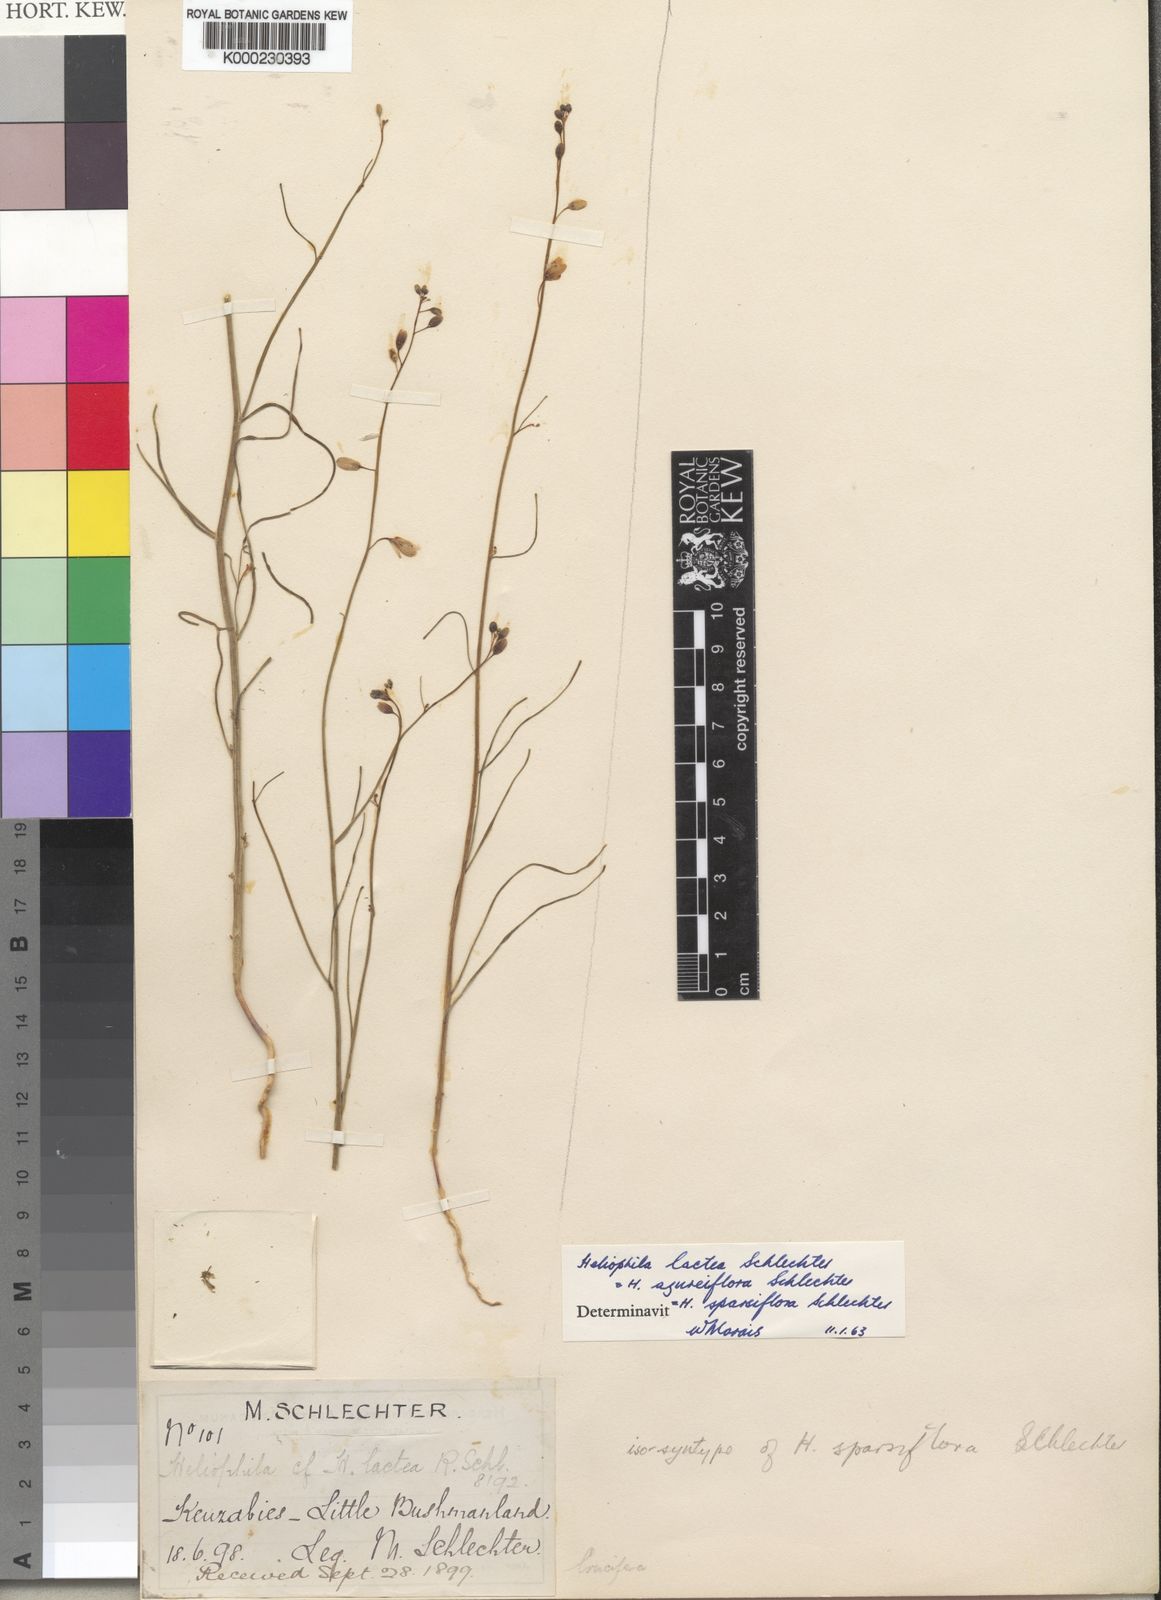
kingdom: Plantae
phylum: Tracheophyta
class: Magnoliopsida
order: Brassicales
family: Brassicaceae
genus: Heliophila
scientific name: Heliophila lactea
